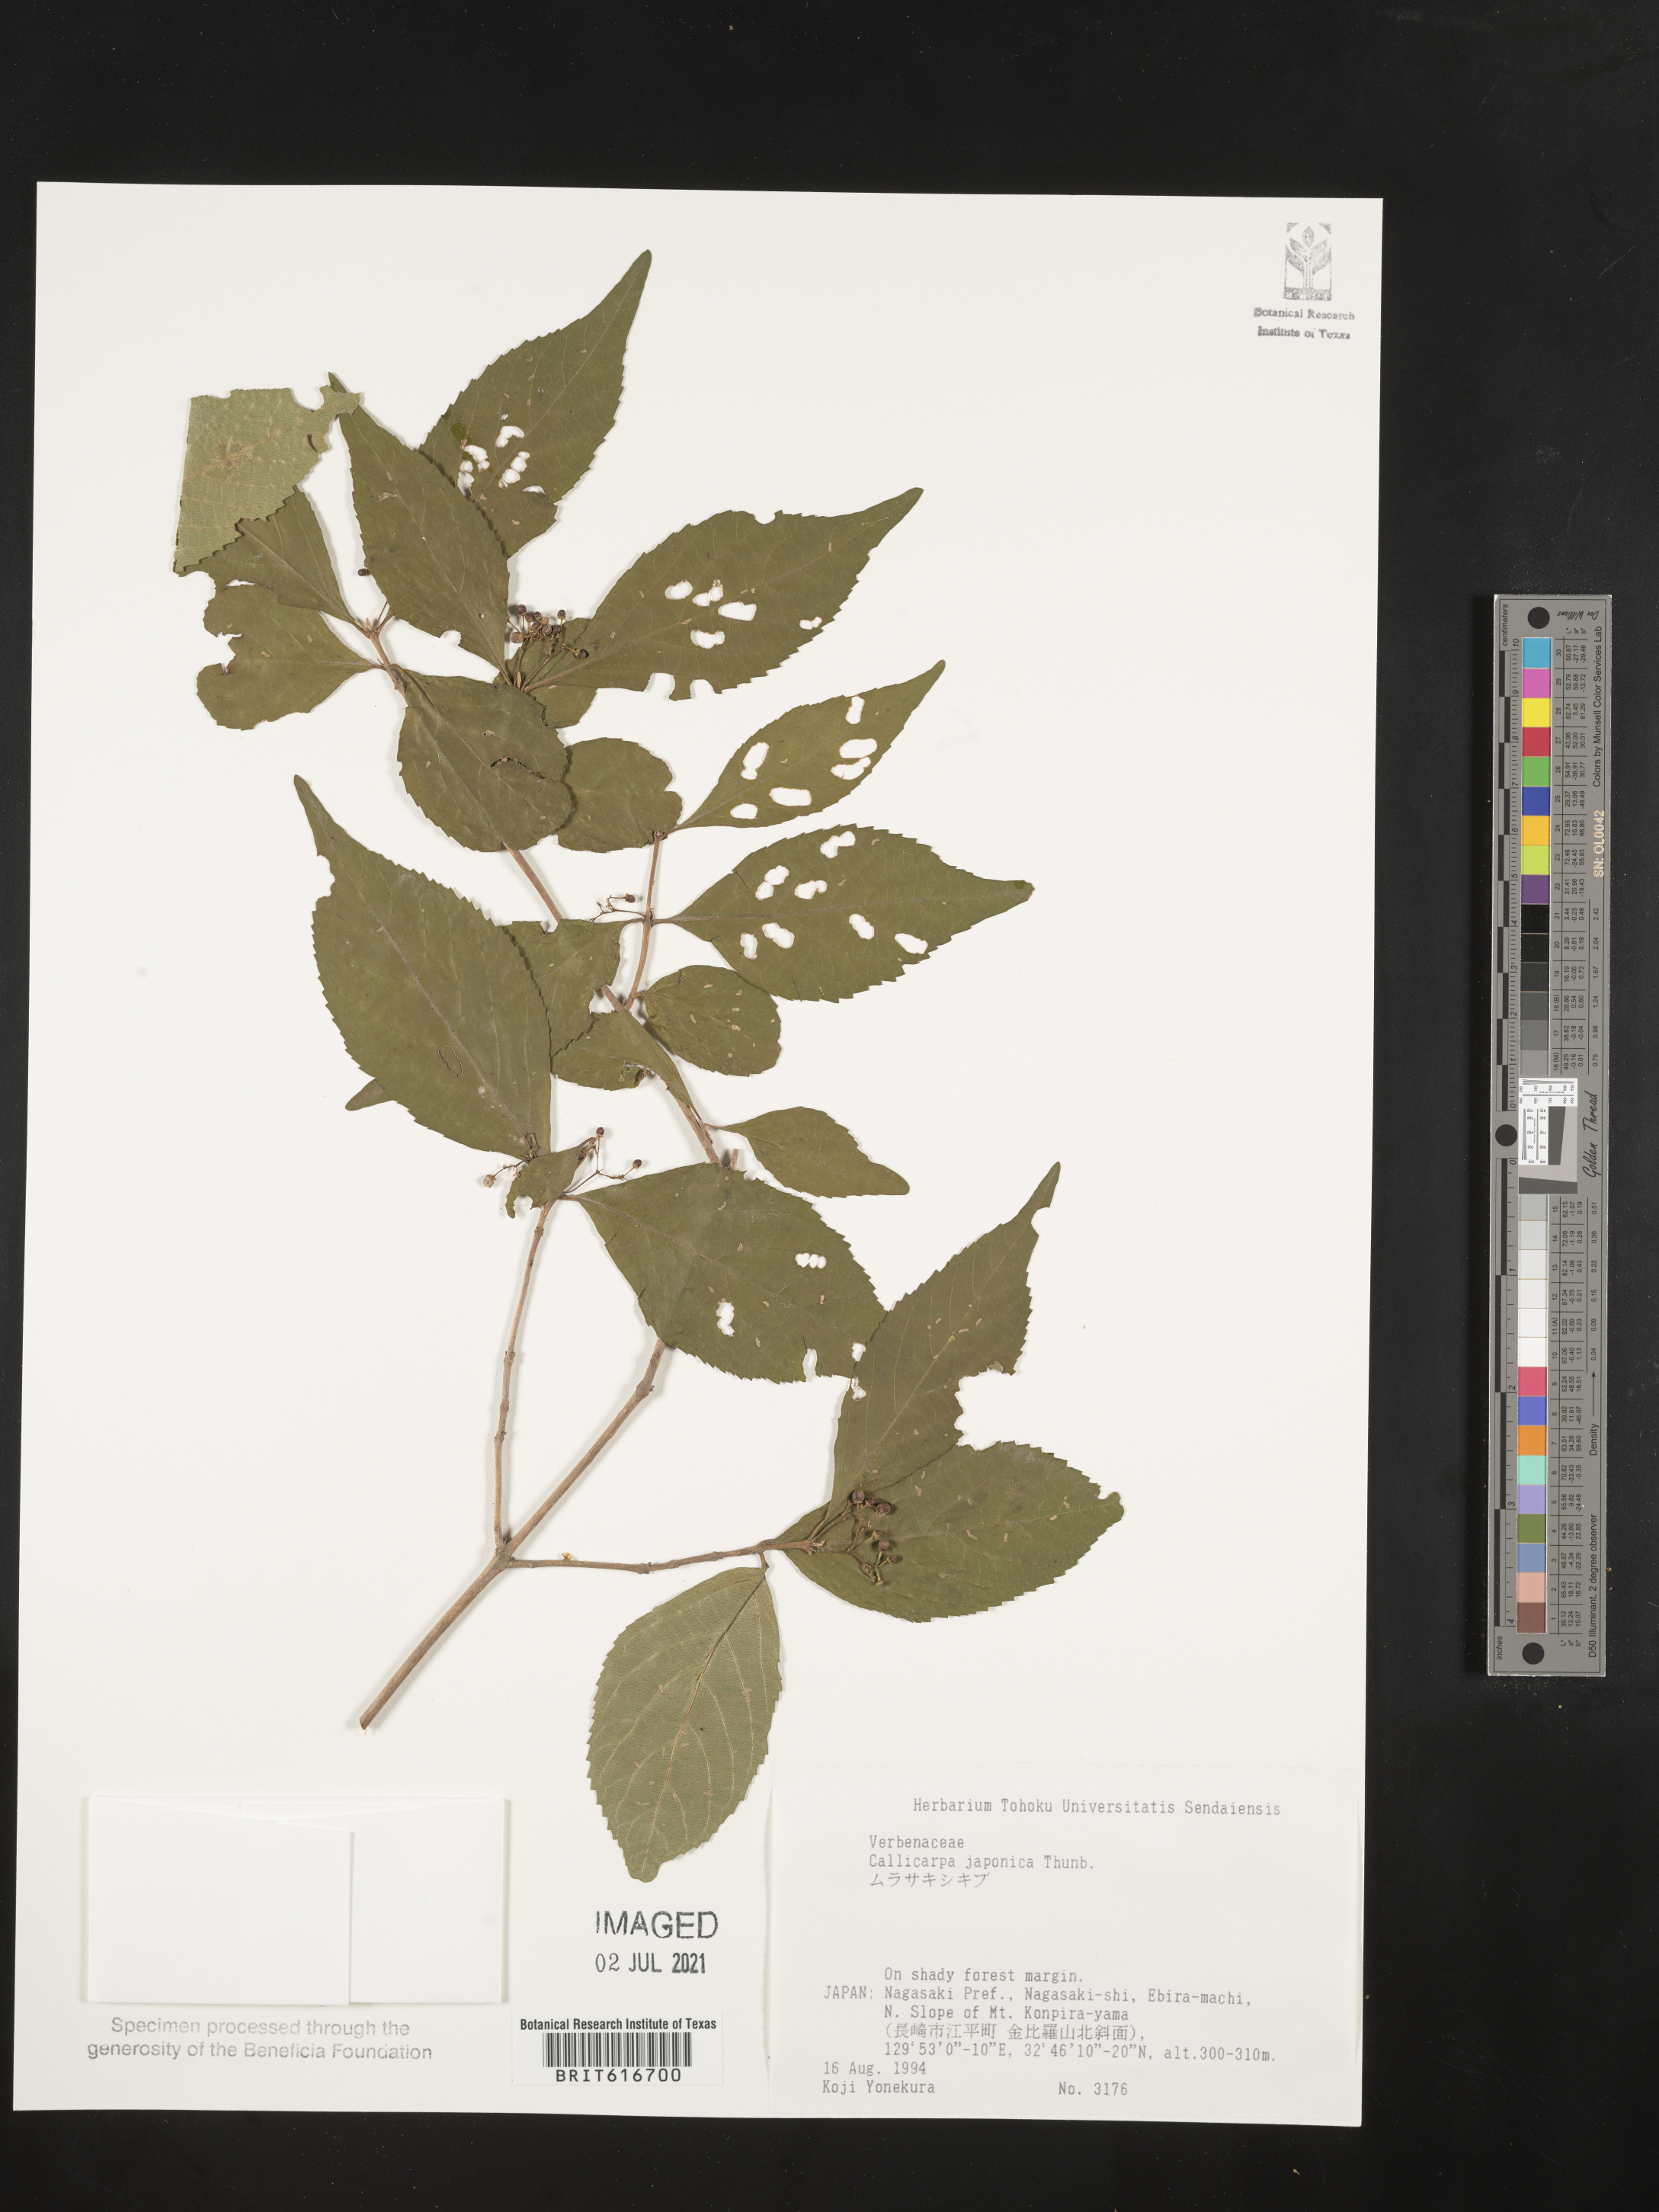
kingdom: Plantae
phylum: Tracheophyta
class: Magnoliopsida
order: Lamiales
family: Lamiaceae
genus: Callicarpa
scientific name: Callicarpa japonica
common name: Japanese beauty-berry
